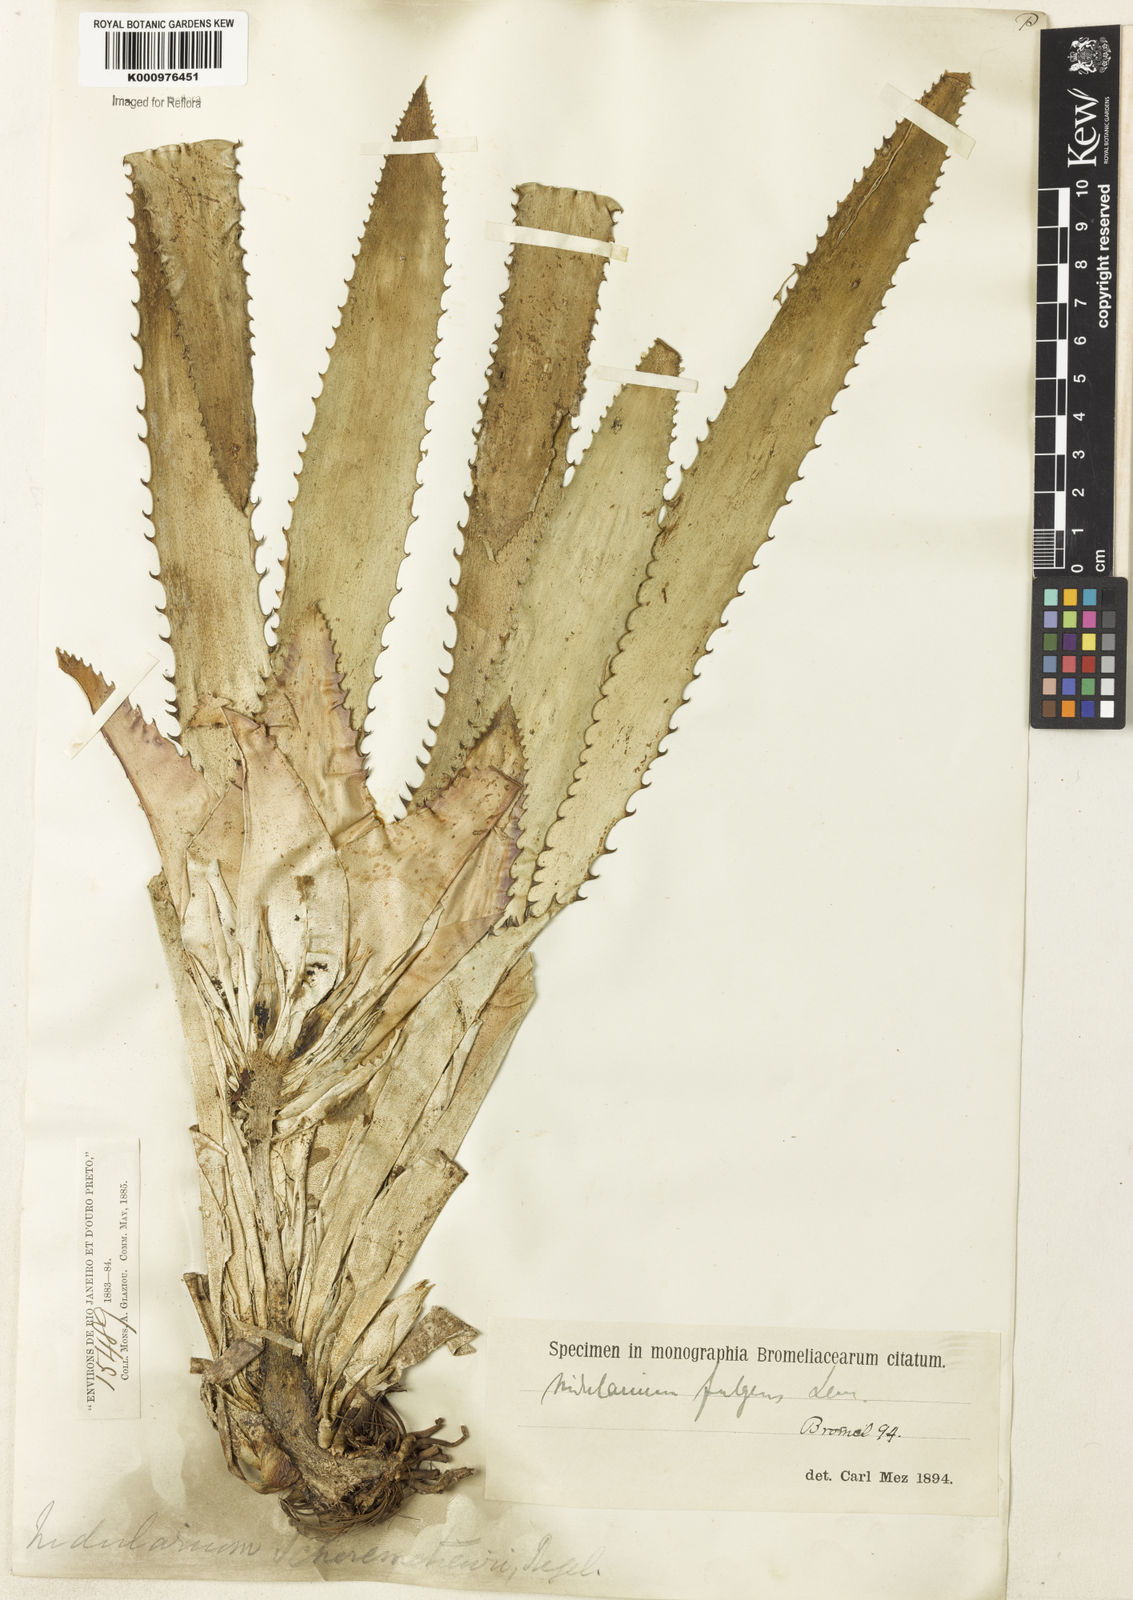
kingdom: Plantae
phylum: Tracheophyta
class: Liliopsida
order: Poales
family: Bromeliaceae
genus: Nidularium
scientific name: Nidularium fulgens
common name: Blushing bromeliad
